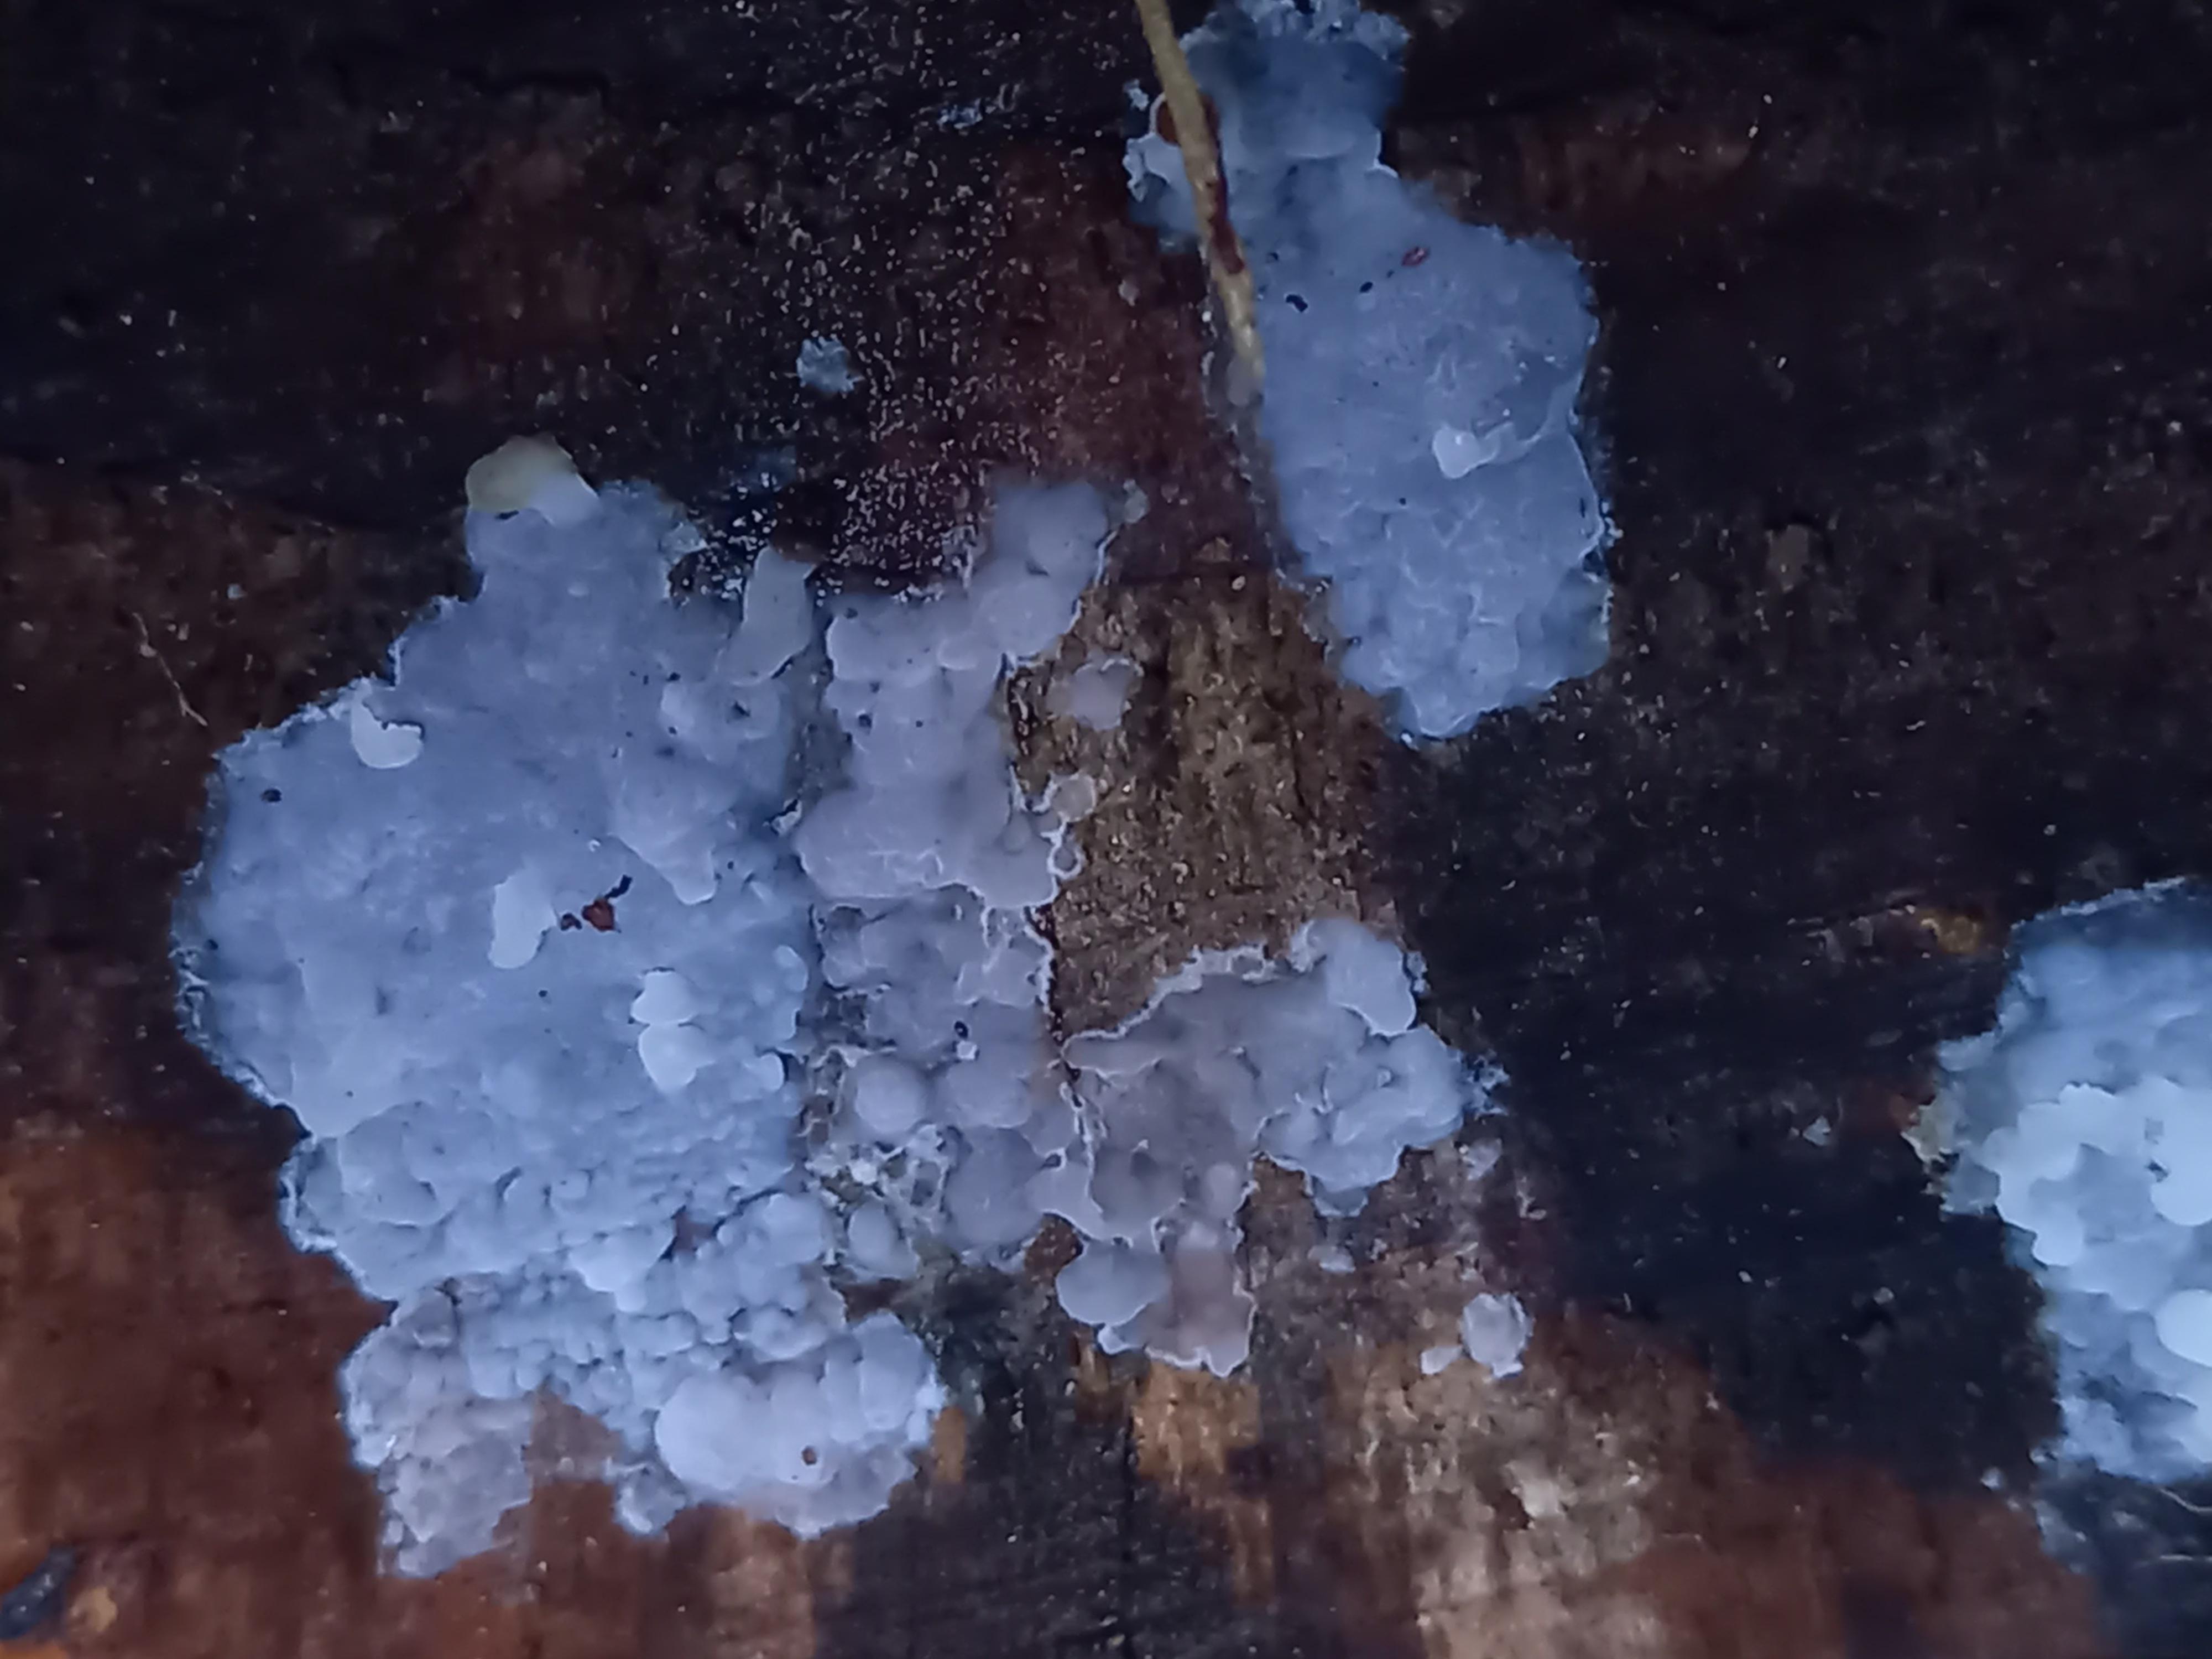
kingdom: Fungi
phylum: Basidiomycota
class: Agaricomycetes
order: Sebacinales
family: Sebacinaceae
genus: Sebacina
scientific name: Sebacina grisea
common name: blågrå bævrehinde
